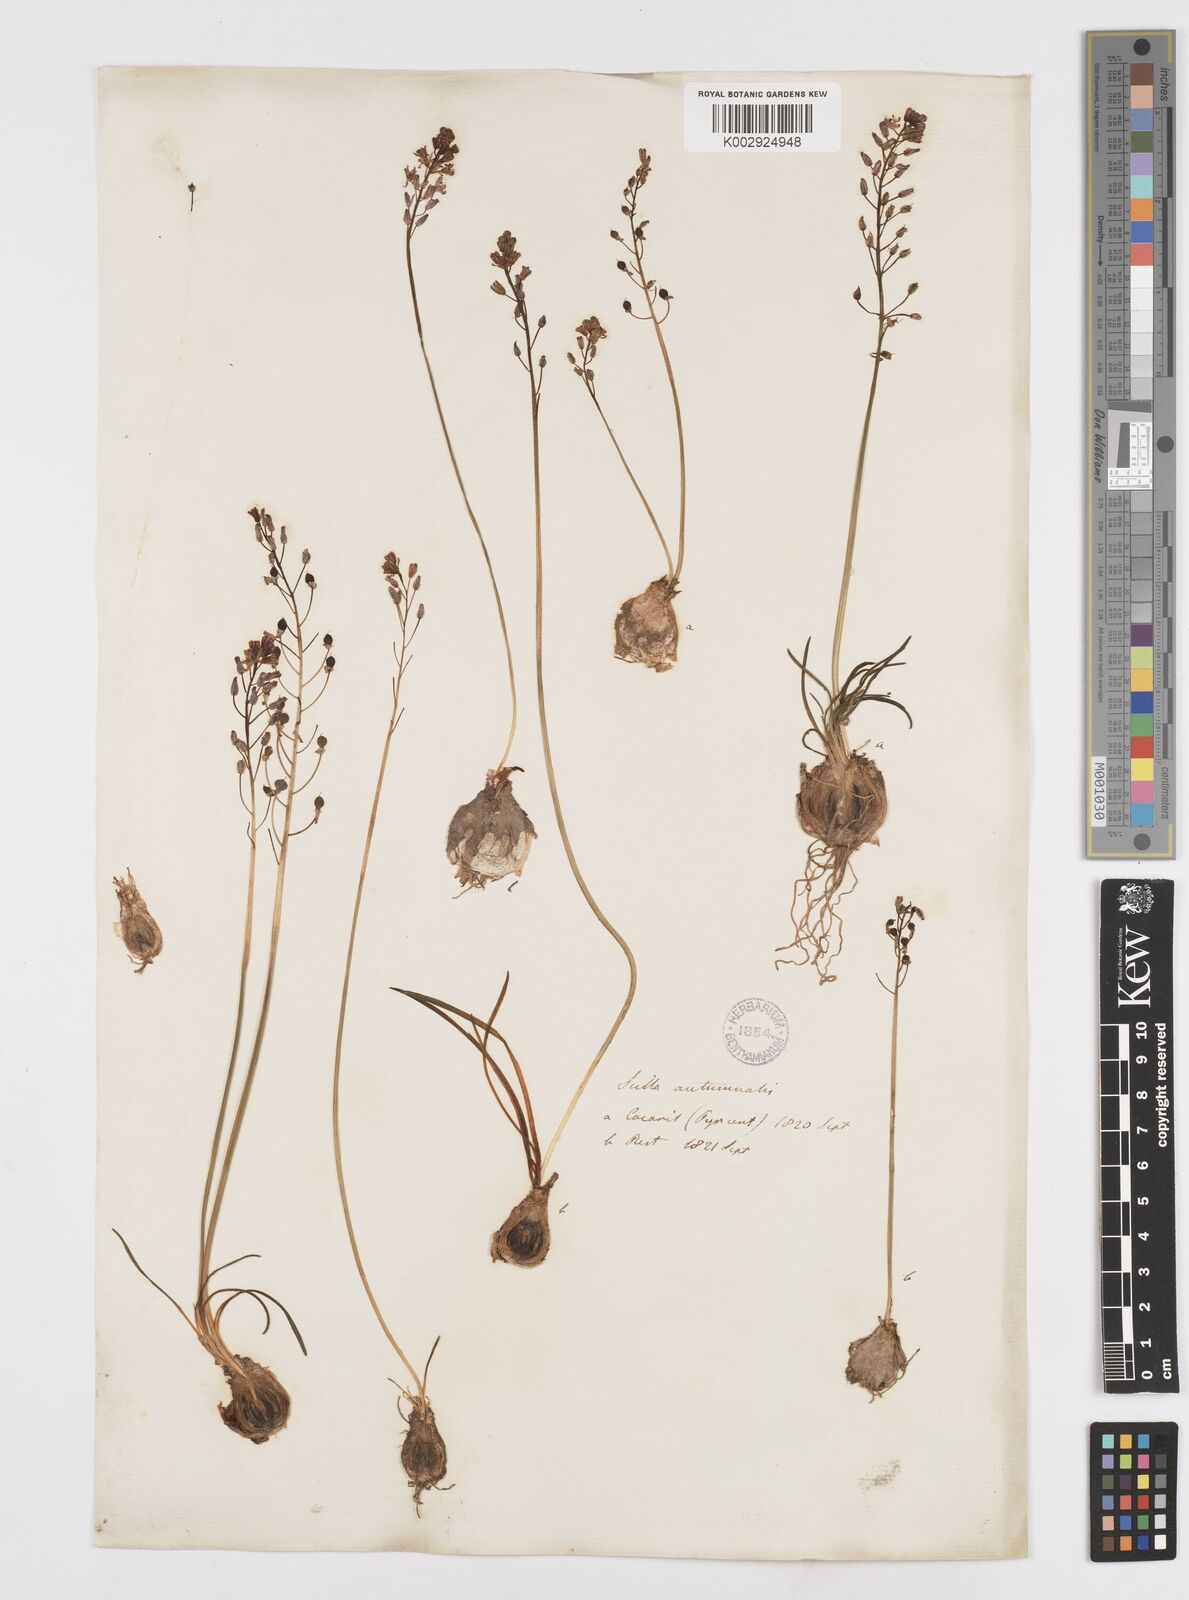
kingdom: Plantae
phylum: Tracheophyta
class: Liliopsida
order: Asparagales
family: Asparagaceae
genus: Prospero
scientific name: Prospero autumnale
